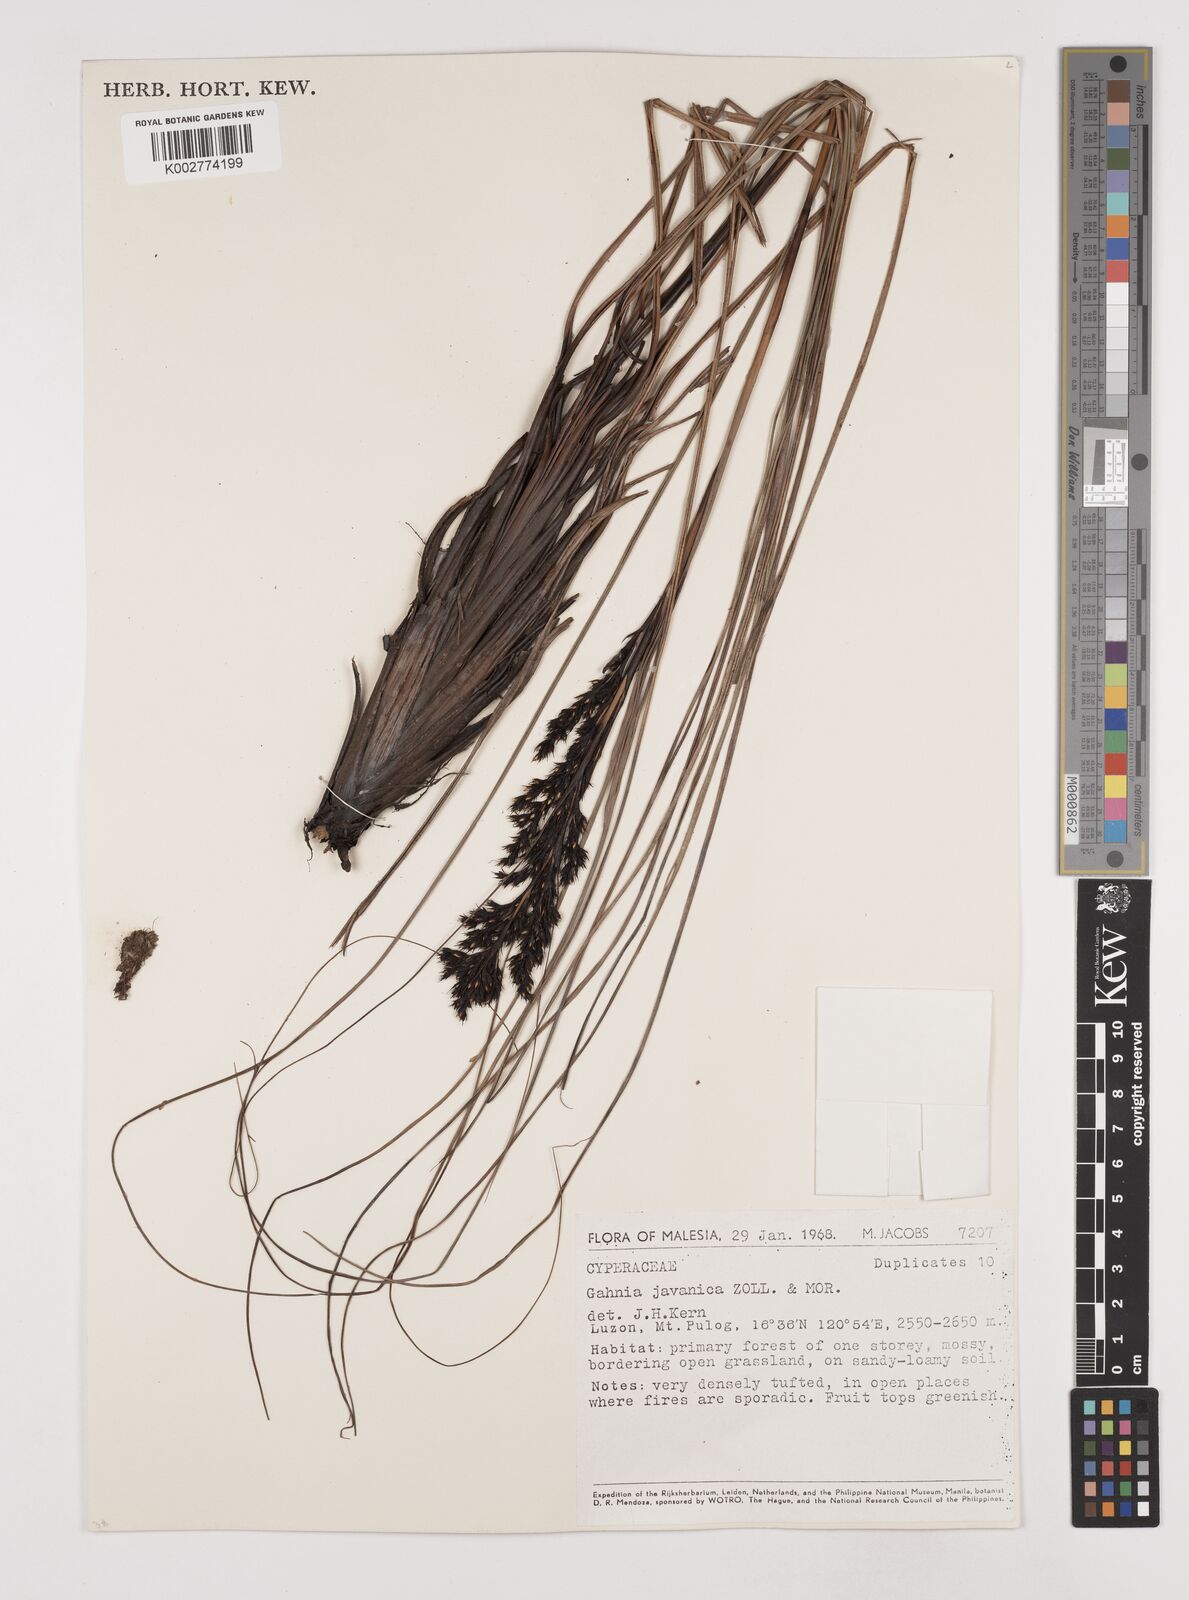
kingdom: Plantae
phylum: Tracheophyta
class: Liliopsida
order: Poales
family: Cyperaceae
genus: Gahnia
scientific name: Gahnia javanica
